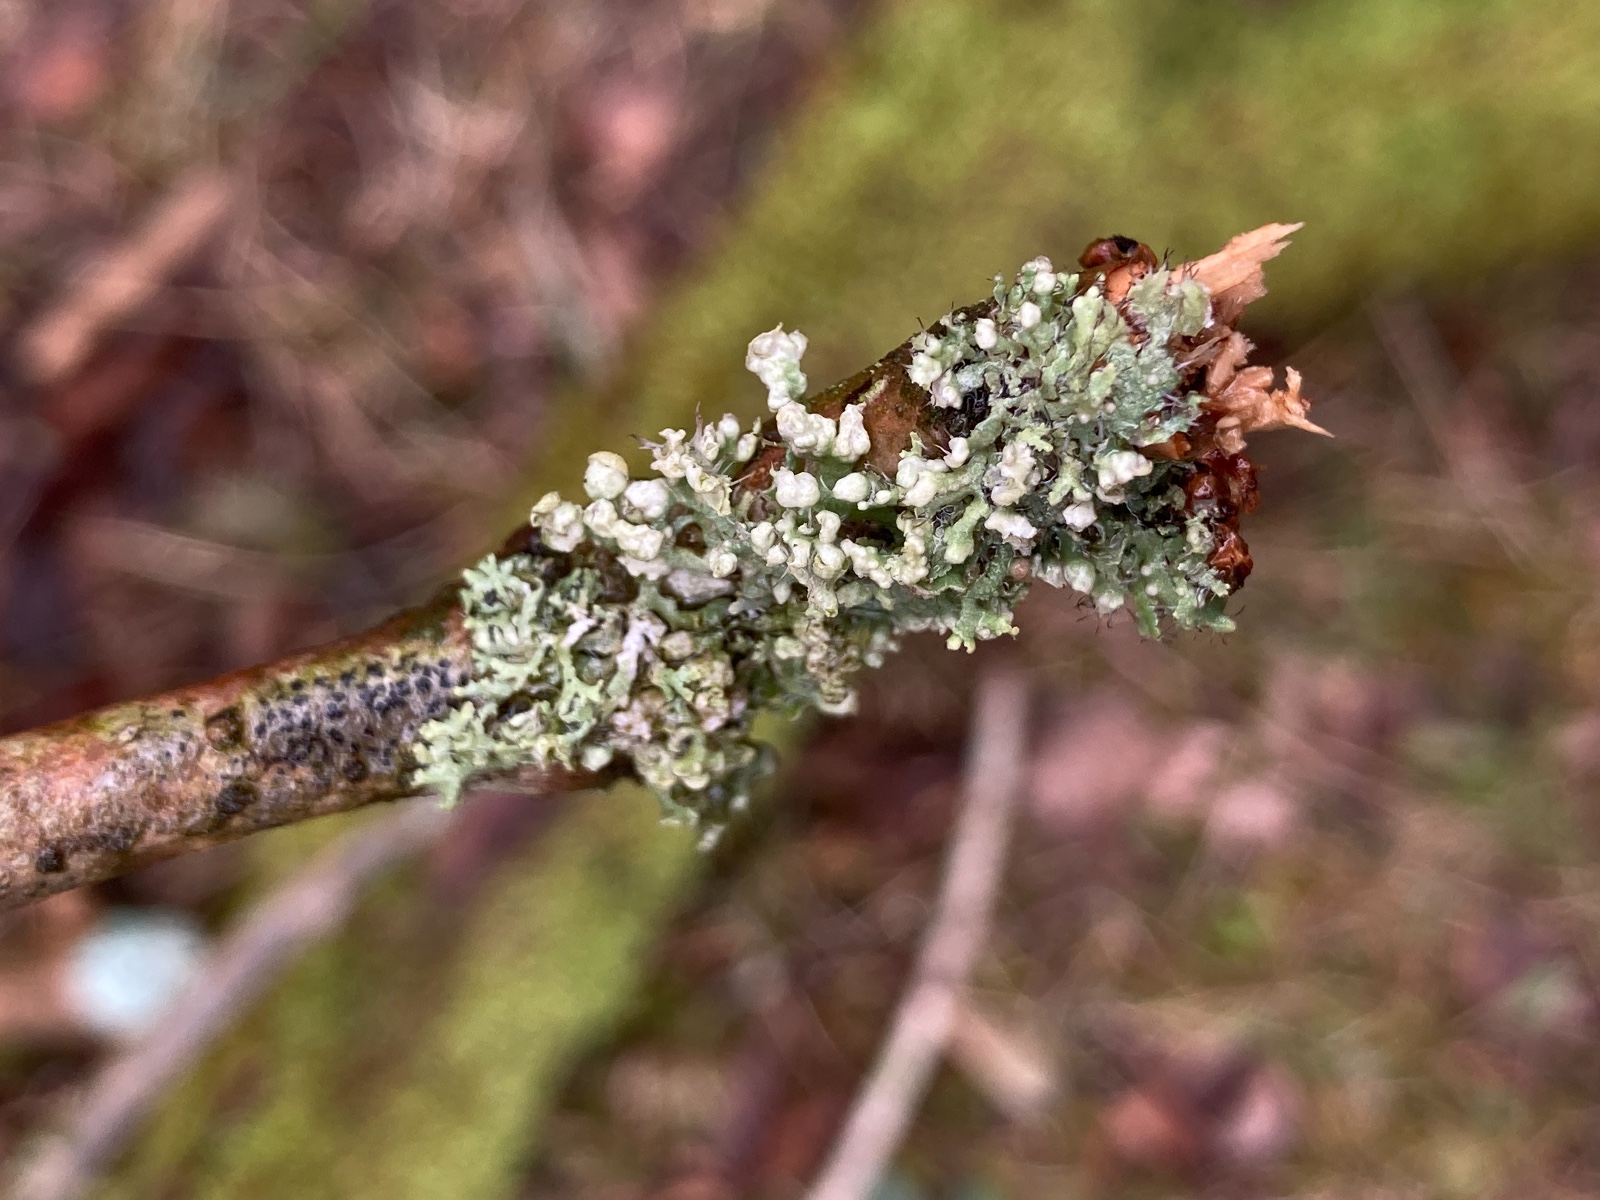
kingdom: Fungi
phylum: Ascomycota
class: Lecanoromycetes
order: Caliciales
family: Physciaceae
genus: Physcia
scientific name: Physcia adscendens
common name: hætte-rosetlav
